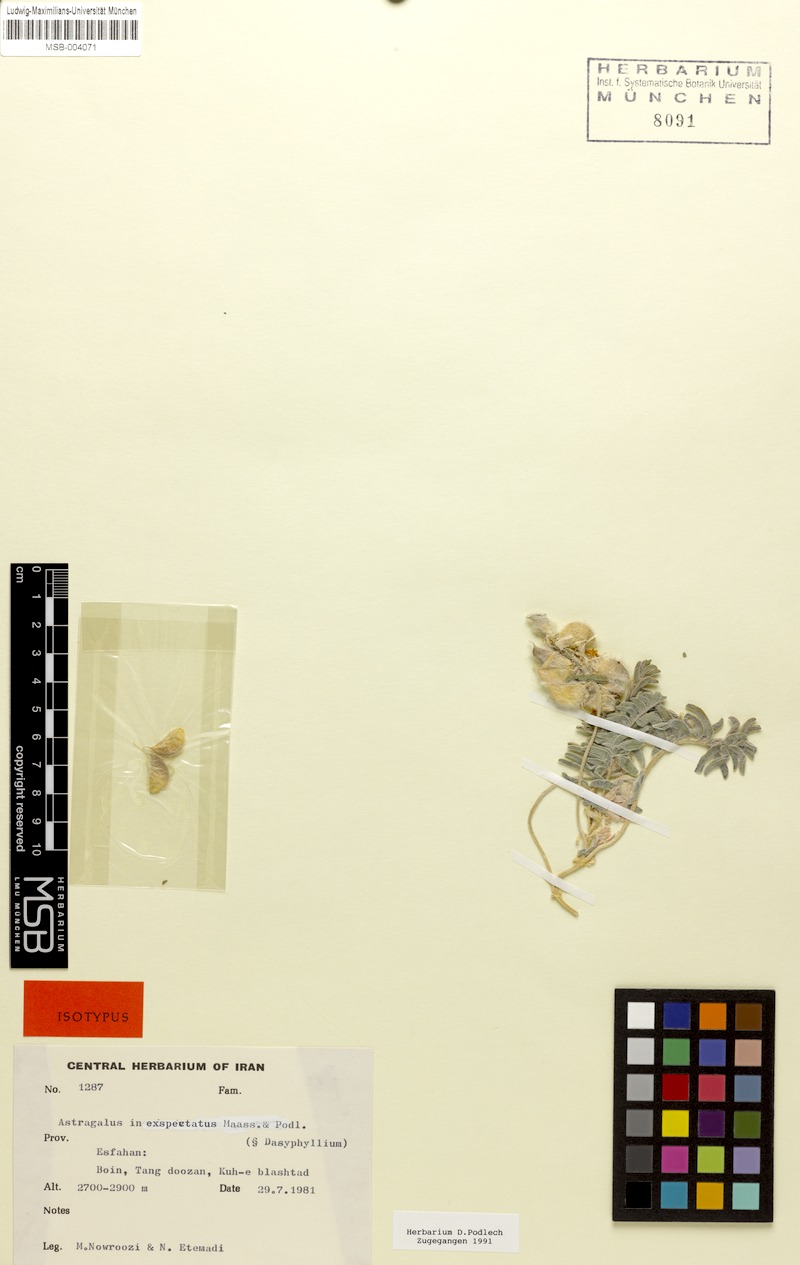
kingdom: Plantae
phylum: Tracheophyta
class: Magnoliopsida
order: Fabales
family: Fabaceae
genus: Astragalus
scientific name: Astragalus inexpectatus
